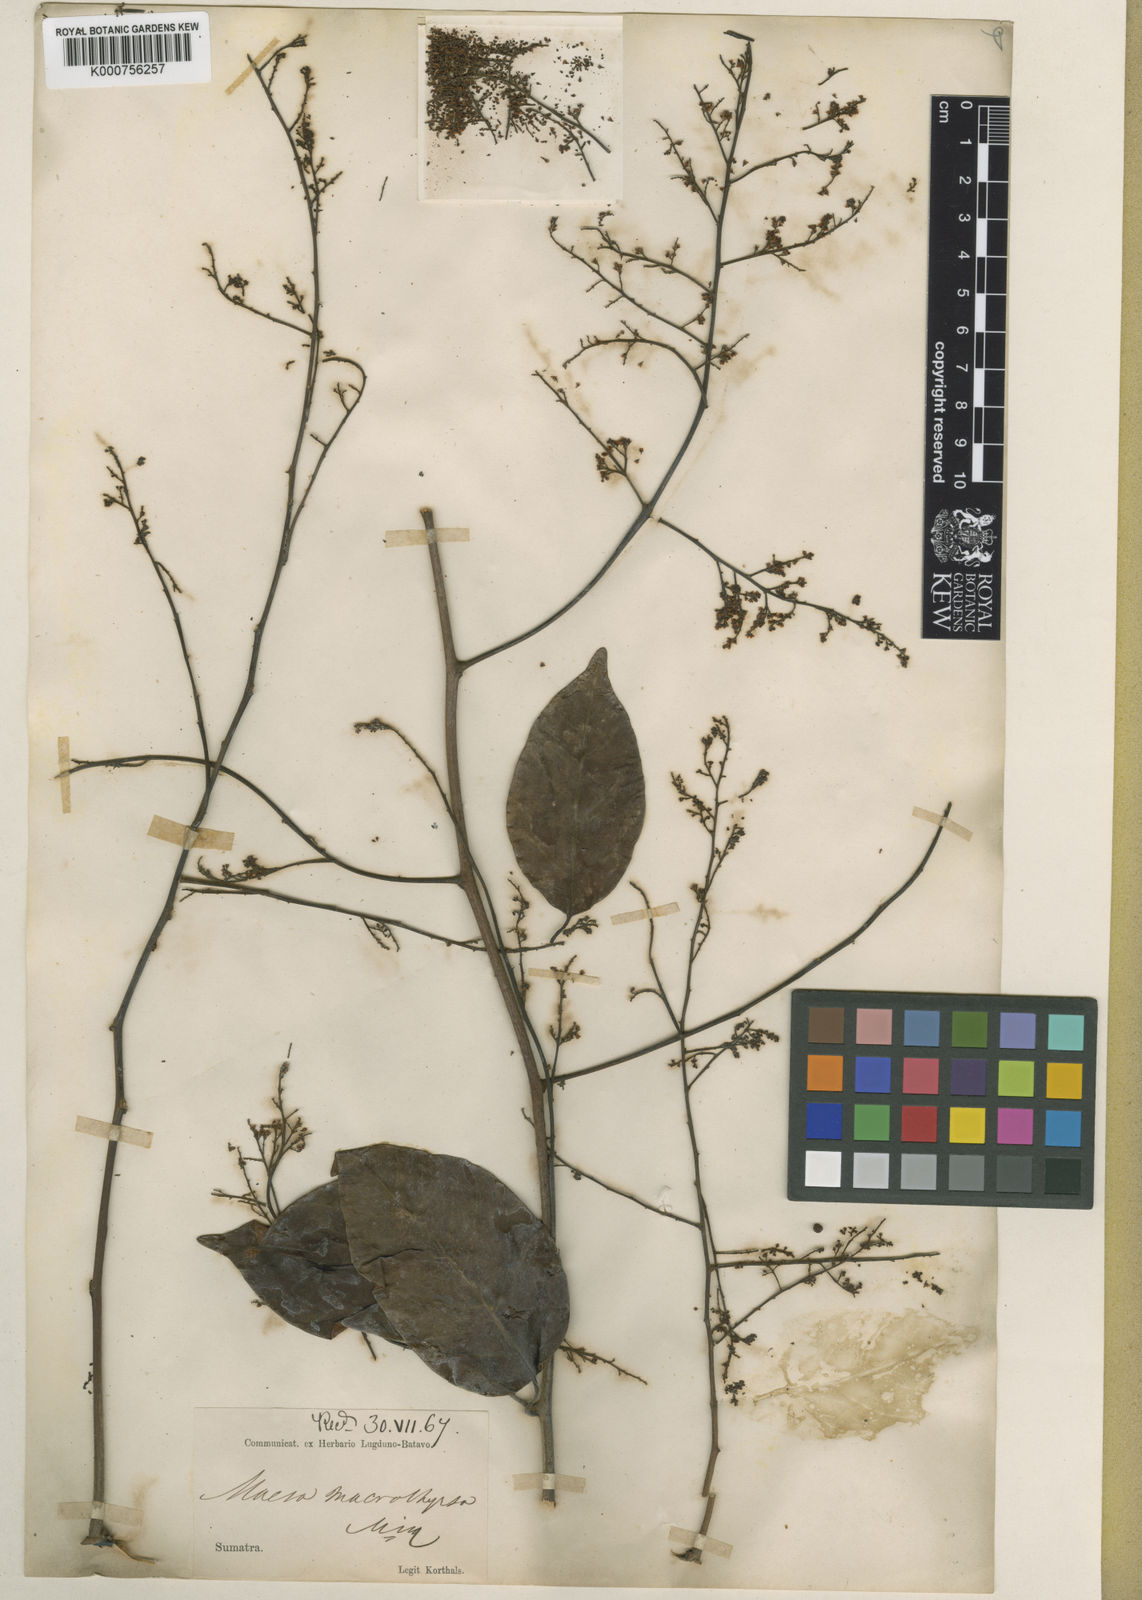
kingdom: Plantae
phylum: Tracheophyta
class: Magnoliopsida
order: Ericales
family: Primulaceae
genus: Maesa
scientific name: Maesa macrothyrsa
